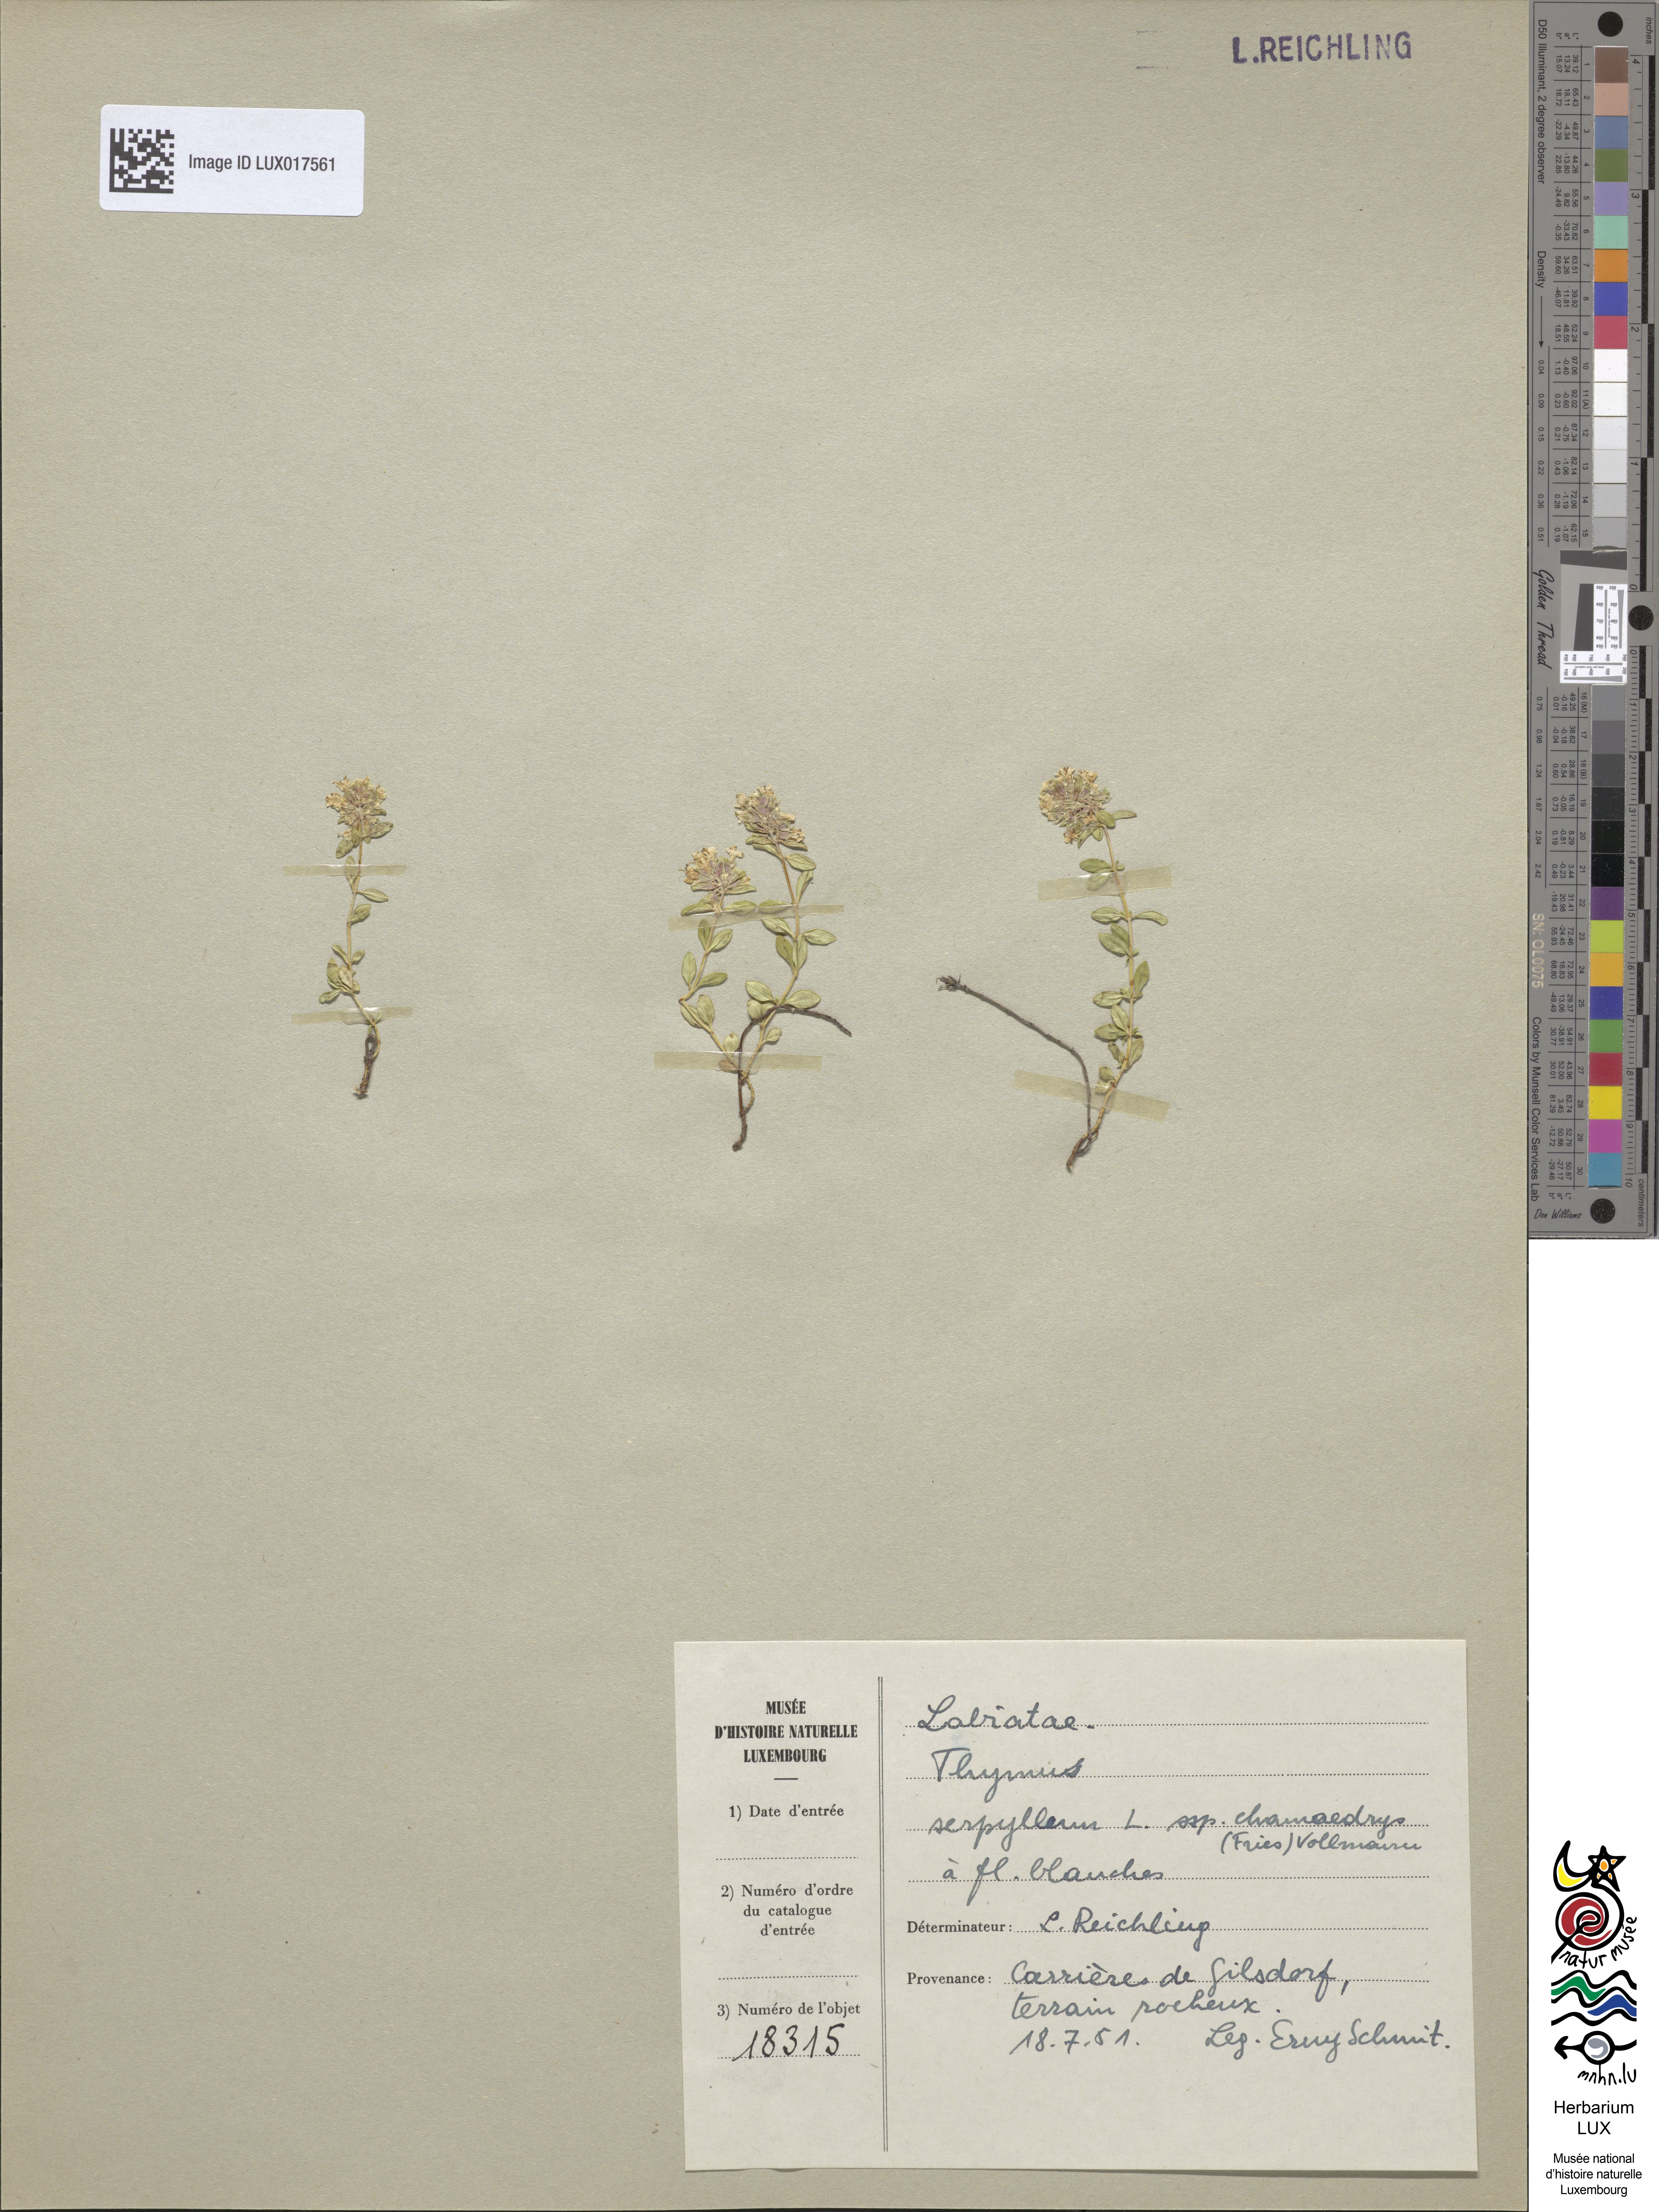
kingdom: Plantae
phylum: Tracheophyta
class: Magnoliopsida
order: Lamiales
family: Lamiaceae
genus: Thymus
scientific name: Thymus pulegioides
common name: Large thyme
